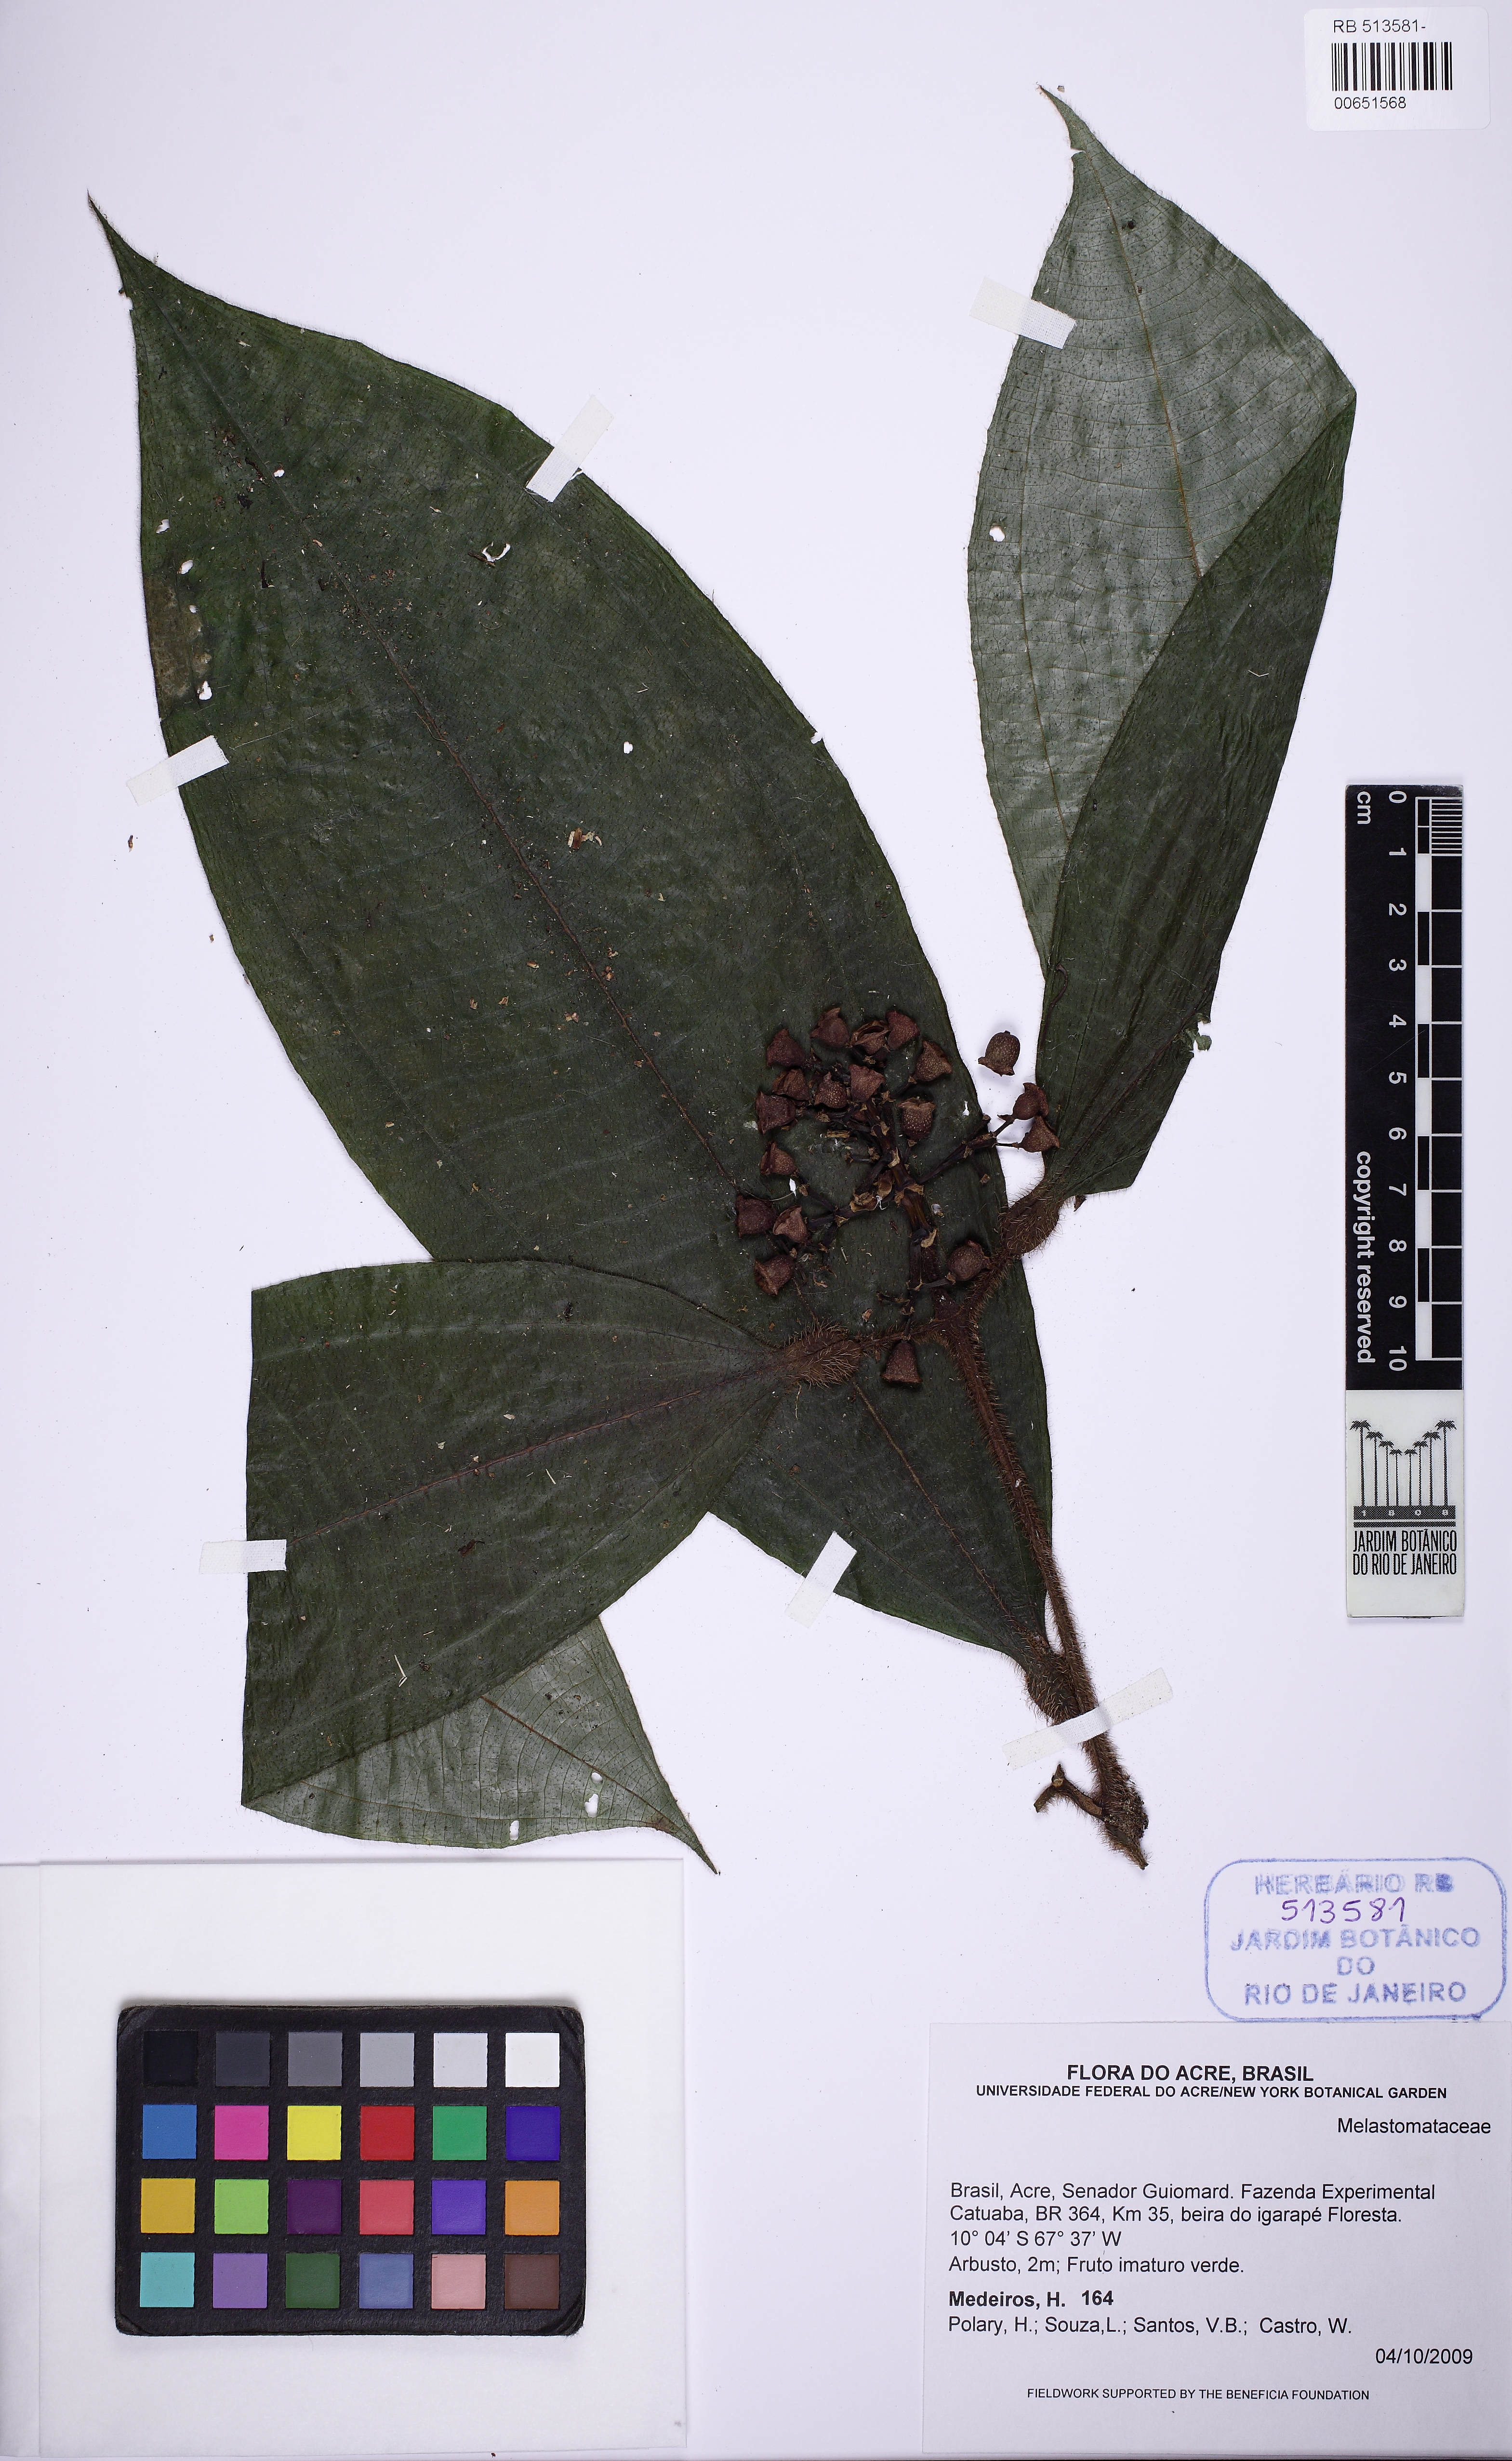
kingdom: Plantae
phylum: Tracheophyta
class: Magnoliopsida
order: Myrtales
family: Melastomataceae
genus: Miconia
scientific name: Miconia tococa
